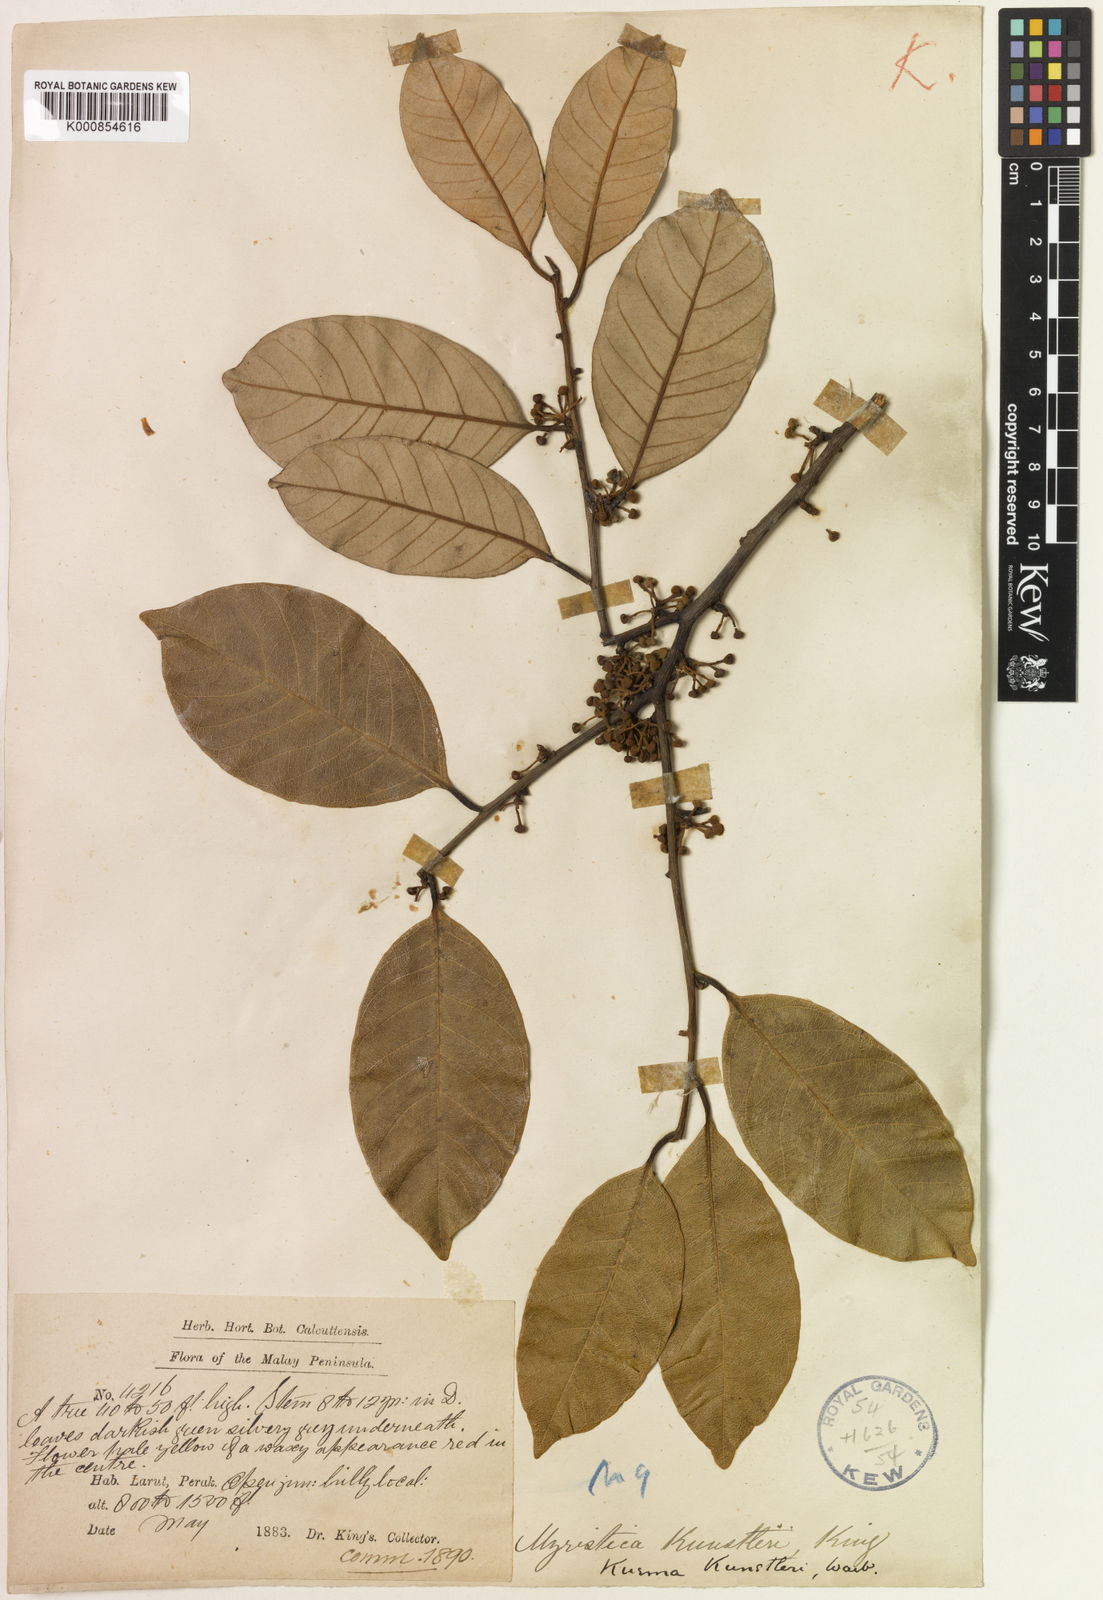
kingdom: Plantae
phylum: Tracheophyta
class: Magnoliopsida
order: Magnoliales
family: Myristicaceae
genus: Knema
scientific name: Knema kunstleri
